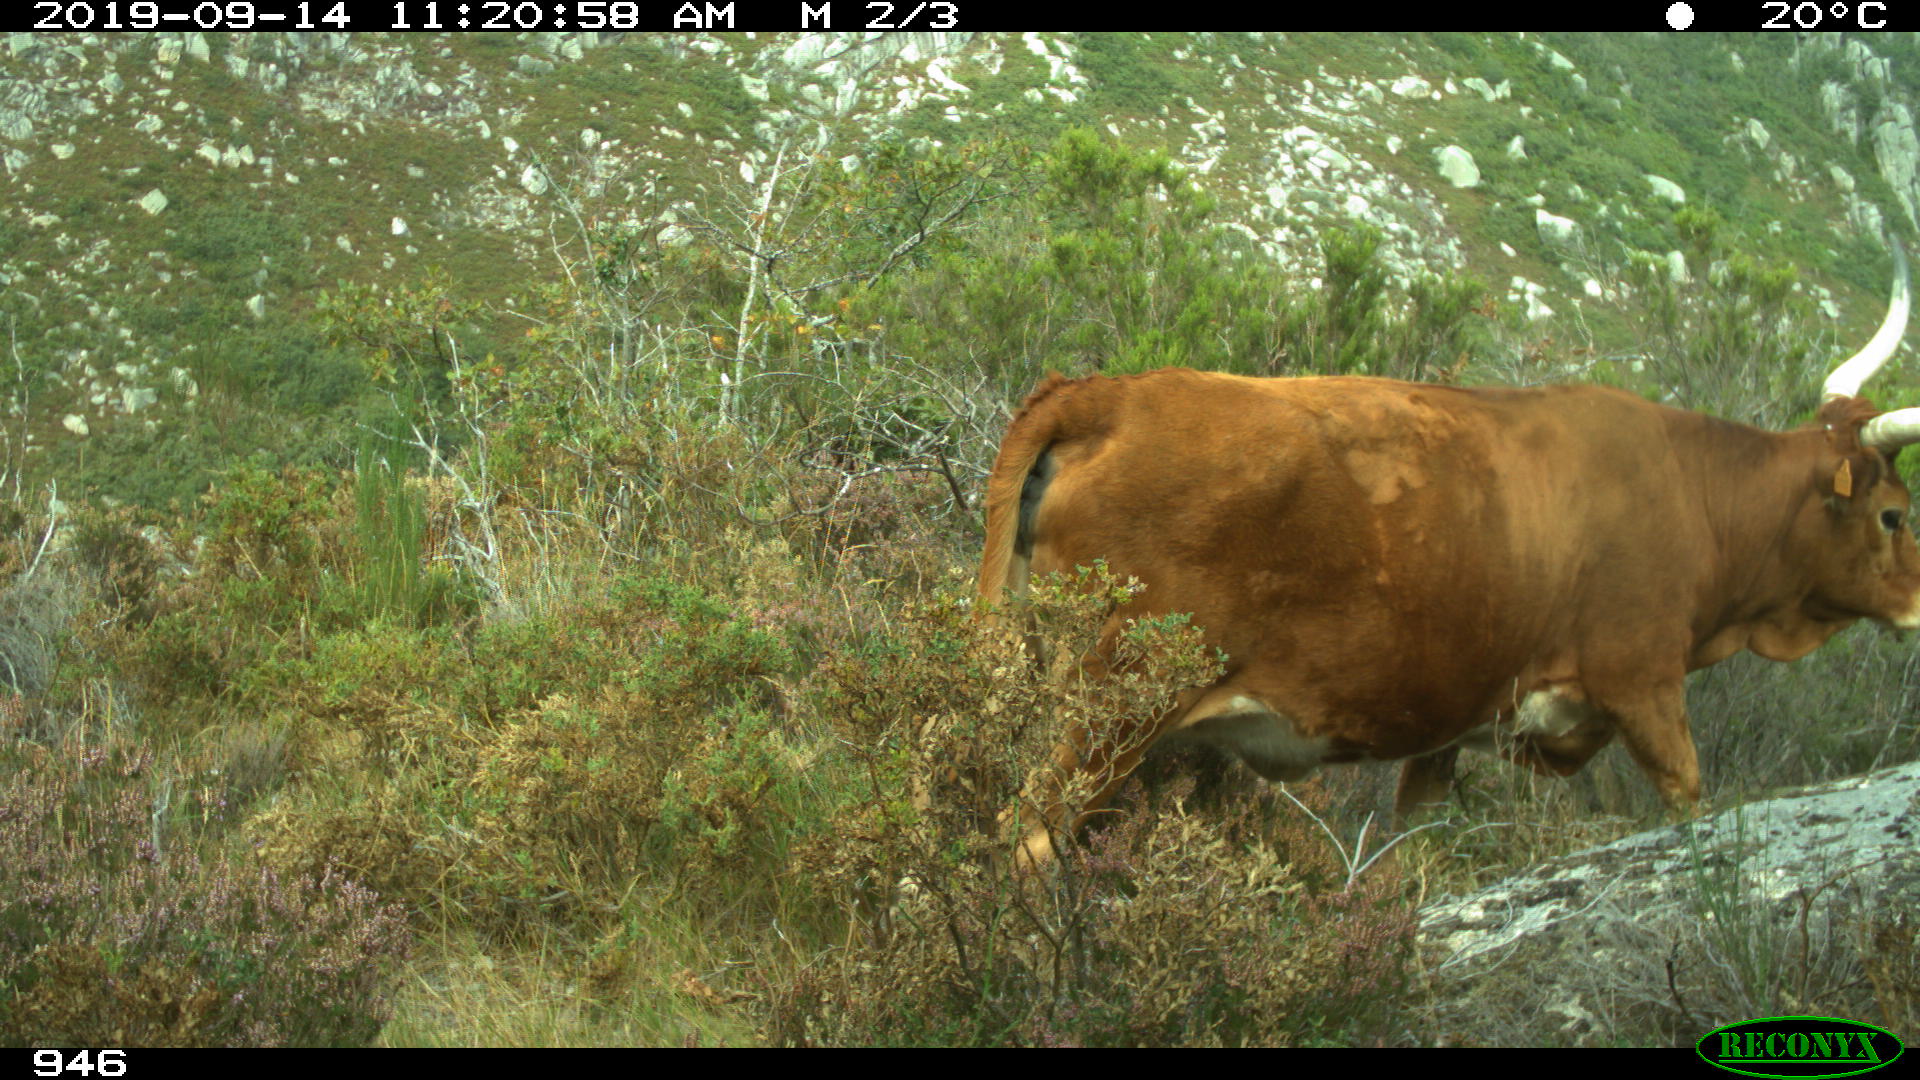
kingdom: Animalia
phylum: Chordata
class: Mammalia
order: Artiodactyla
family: Bovidae
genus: Bos
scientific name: Bos taurus
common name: Domesticated cattle
